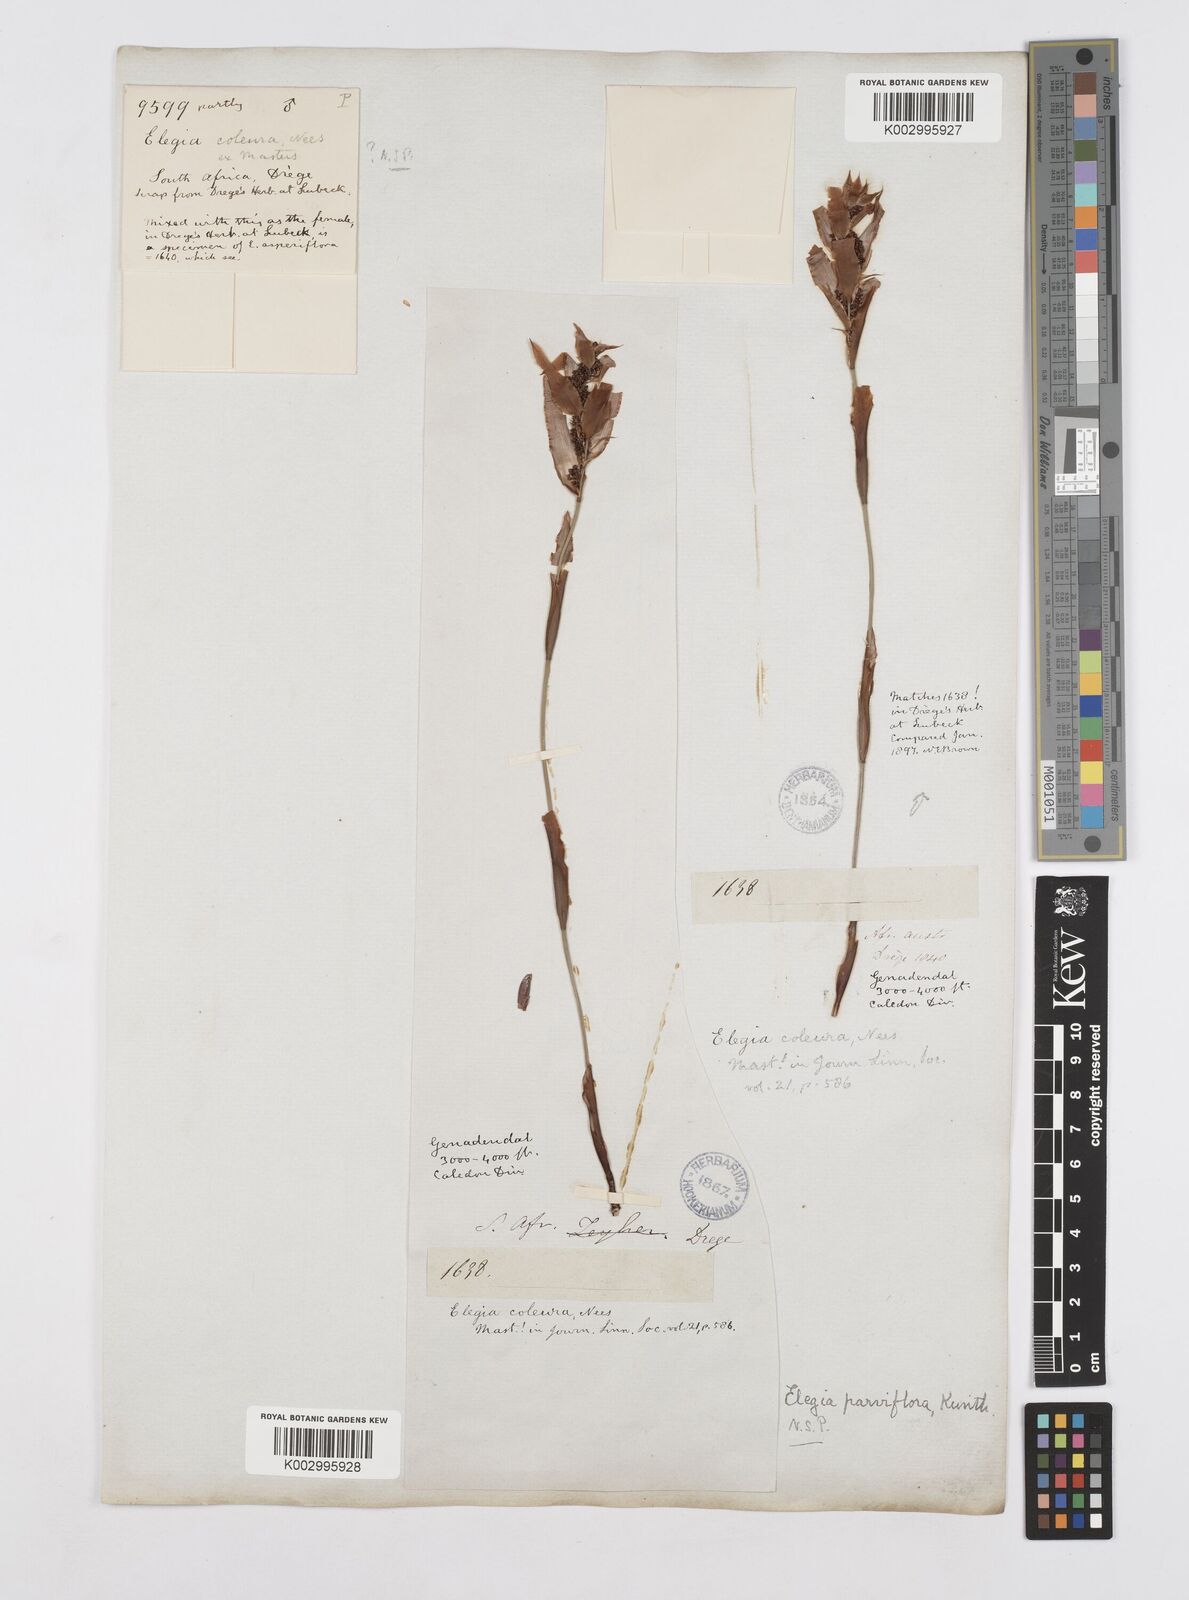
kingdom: Plantae
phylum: Tracheophyta
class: Liliopsida
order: Poales
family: Restionaceae
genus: Cannomois
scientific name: Cannomois parviflora
